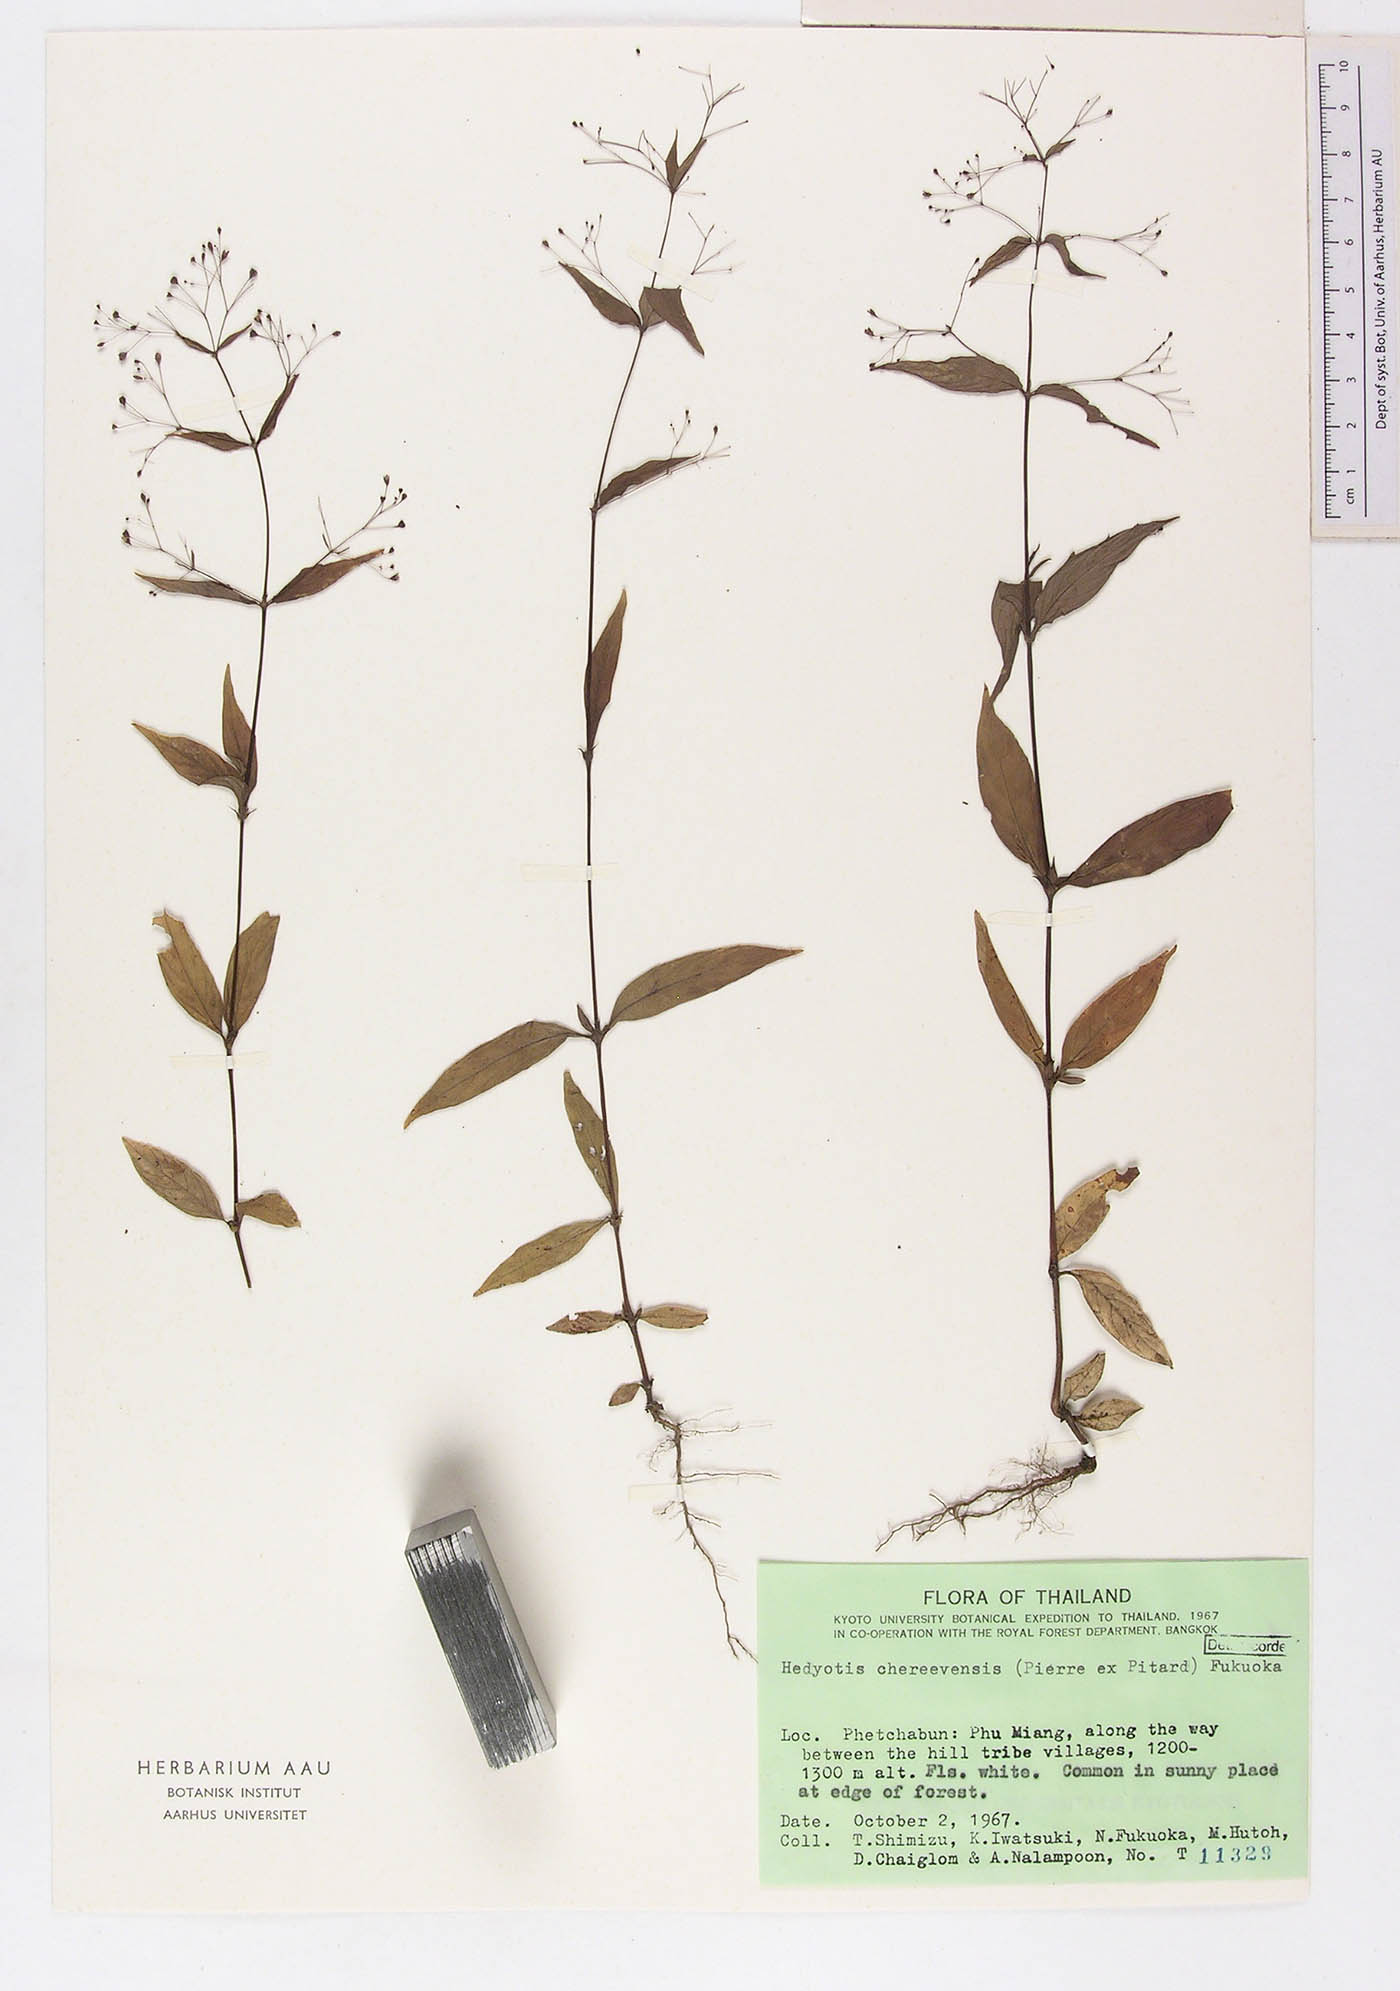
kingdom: Plantae
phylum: Tracheophyta
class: Magnoliopsida
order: Gentianales
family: Rubiaceae
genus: Involucrella
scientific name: Involucrella chereevensis
